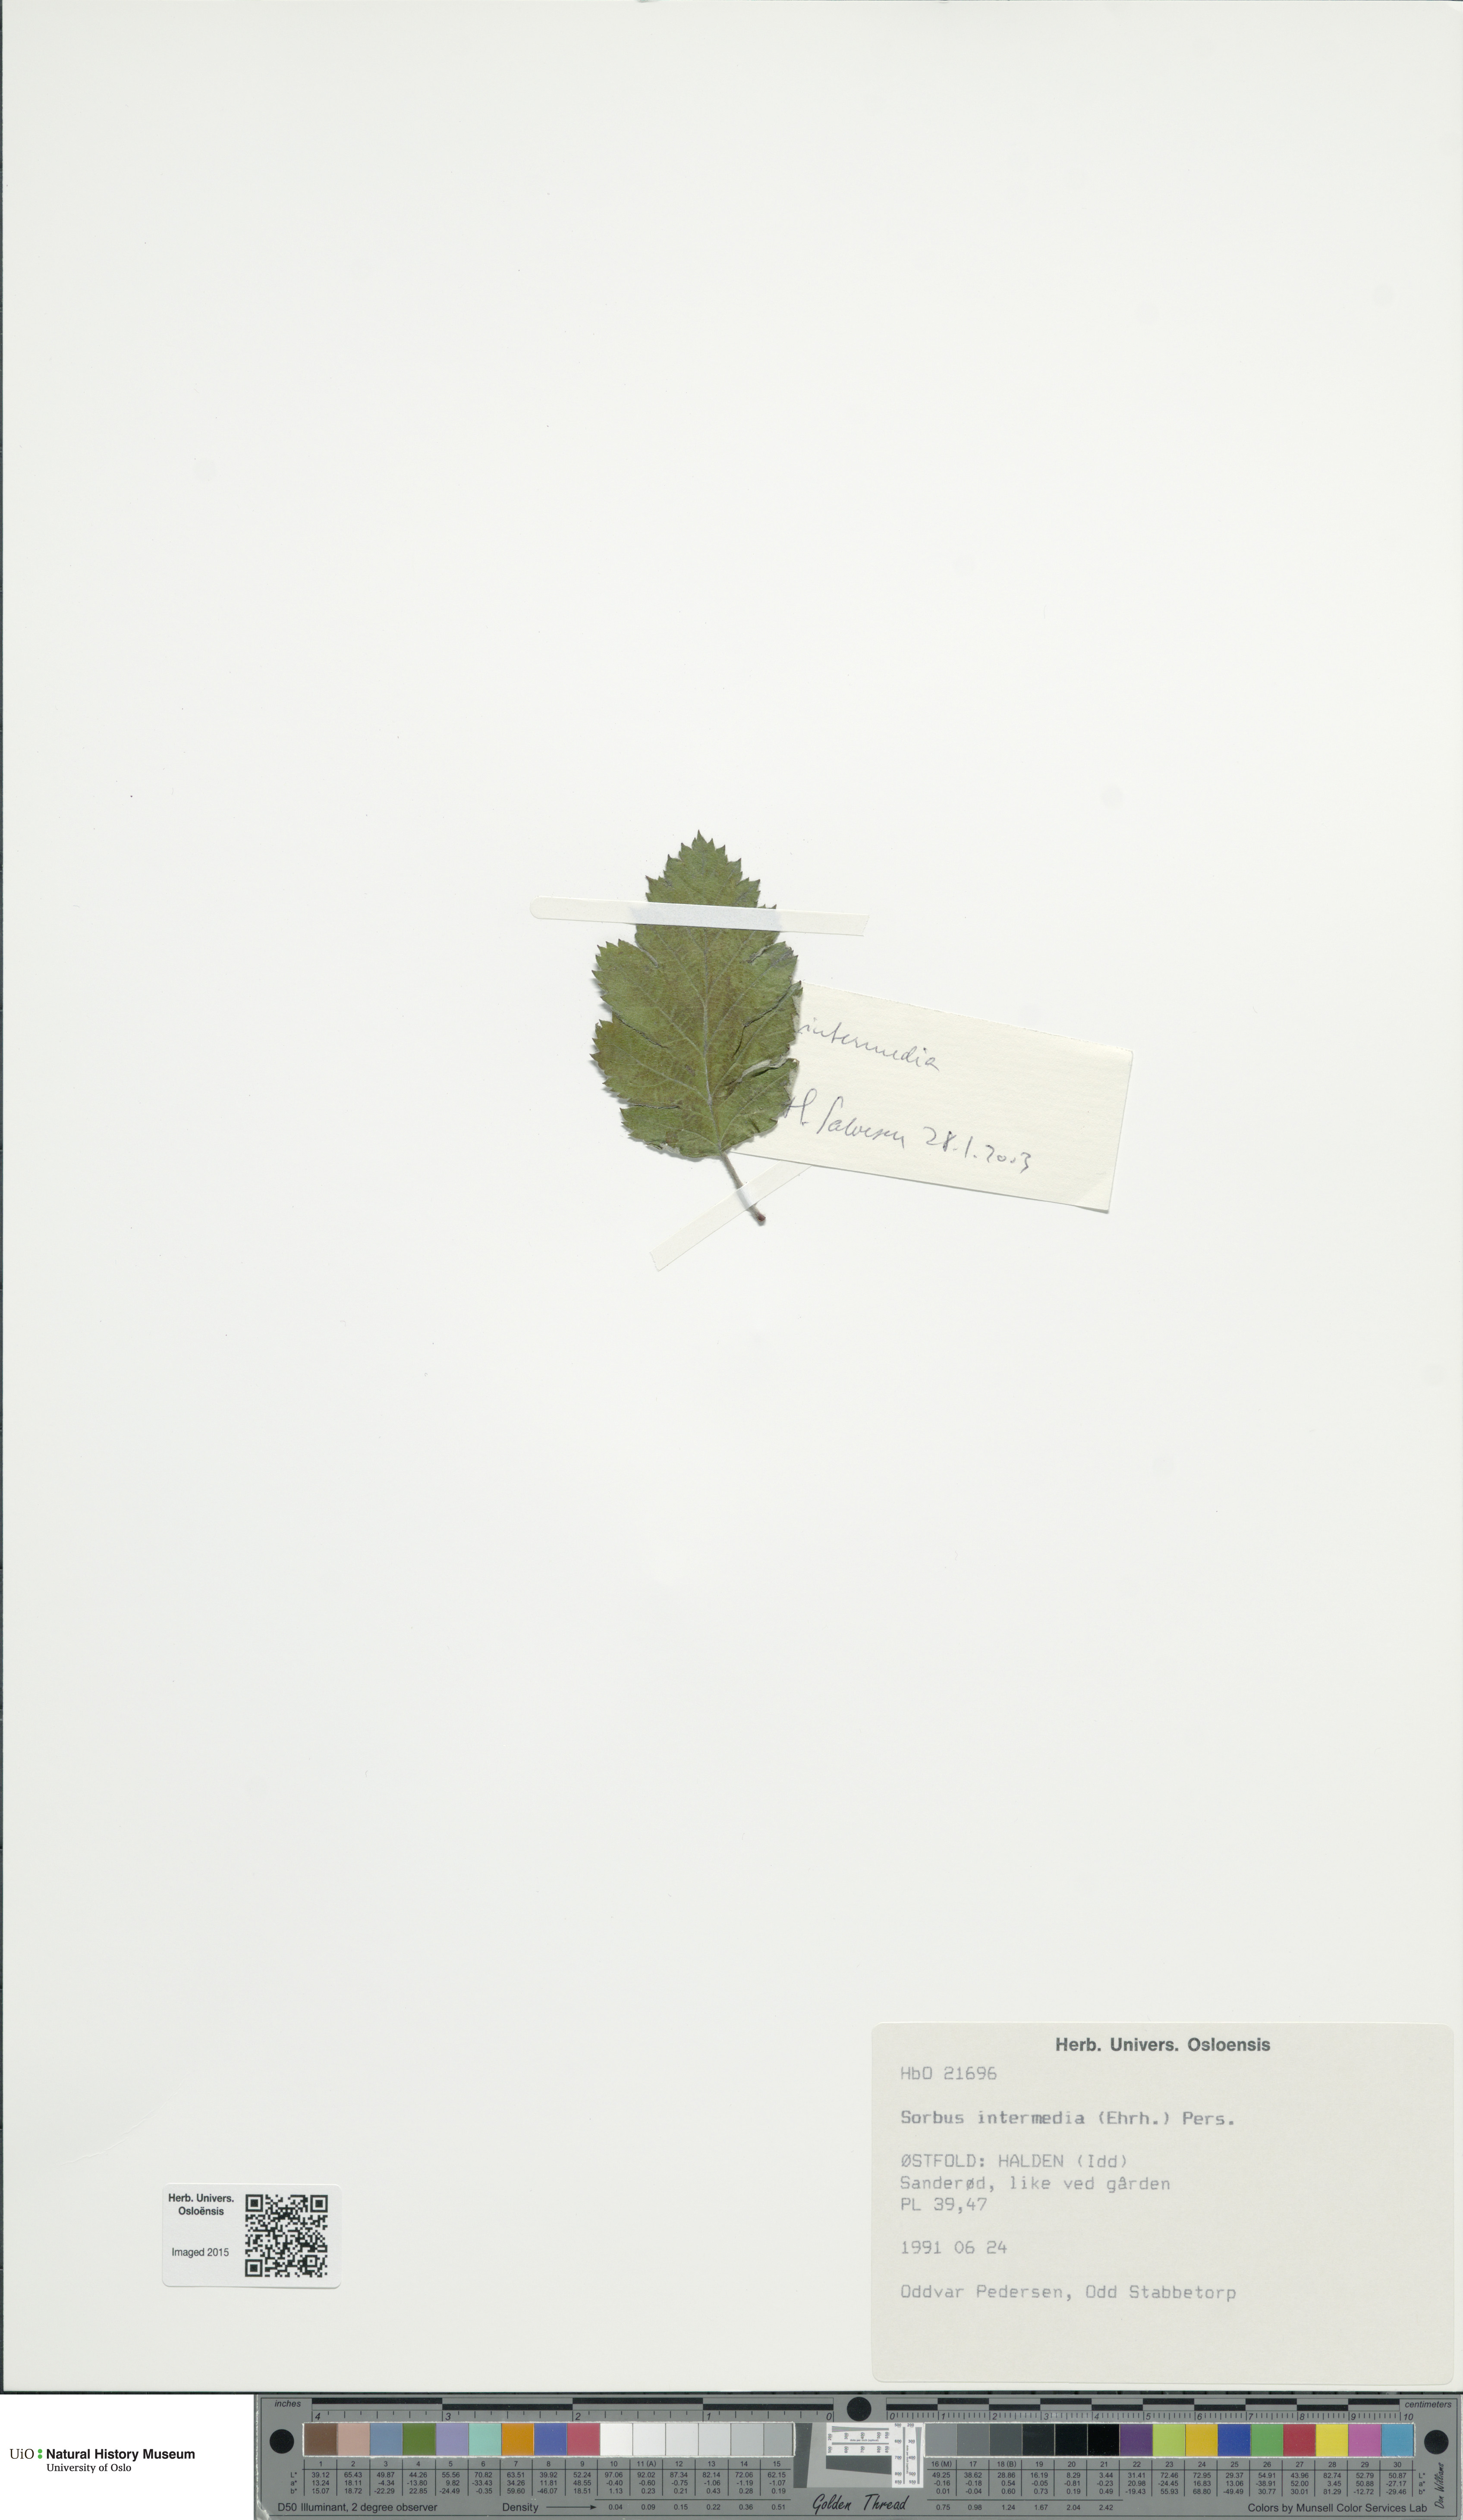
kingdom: Plantae
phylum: Tracheophyta
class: Magnoliopsida
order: Rosales
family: Rosaceae
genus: Scandosorbus
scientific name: Scandosorbus intermedia
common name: Swedish whitebeam
